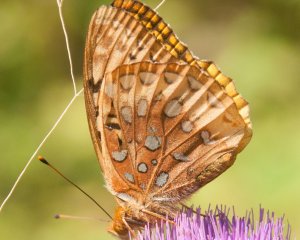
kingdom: Animalia
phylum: Arthropoda
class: Insecta
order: Lepidoptera
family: Nymphalidae
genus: Speyeria
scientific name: Speyeria cybele
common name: Great Spangled Fritillary
